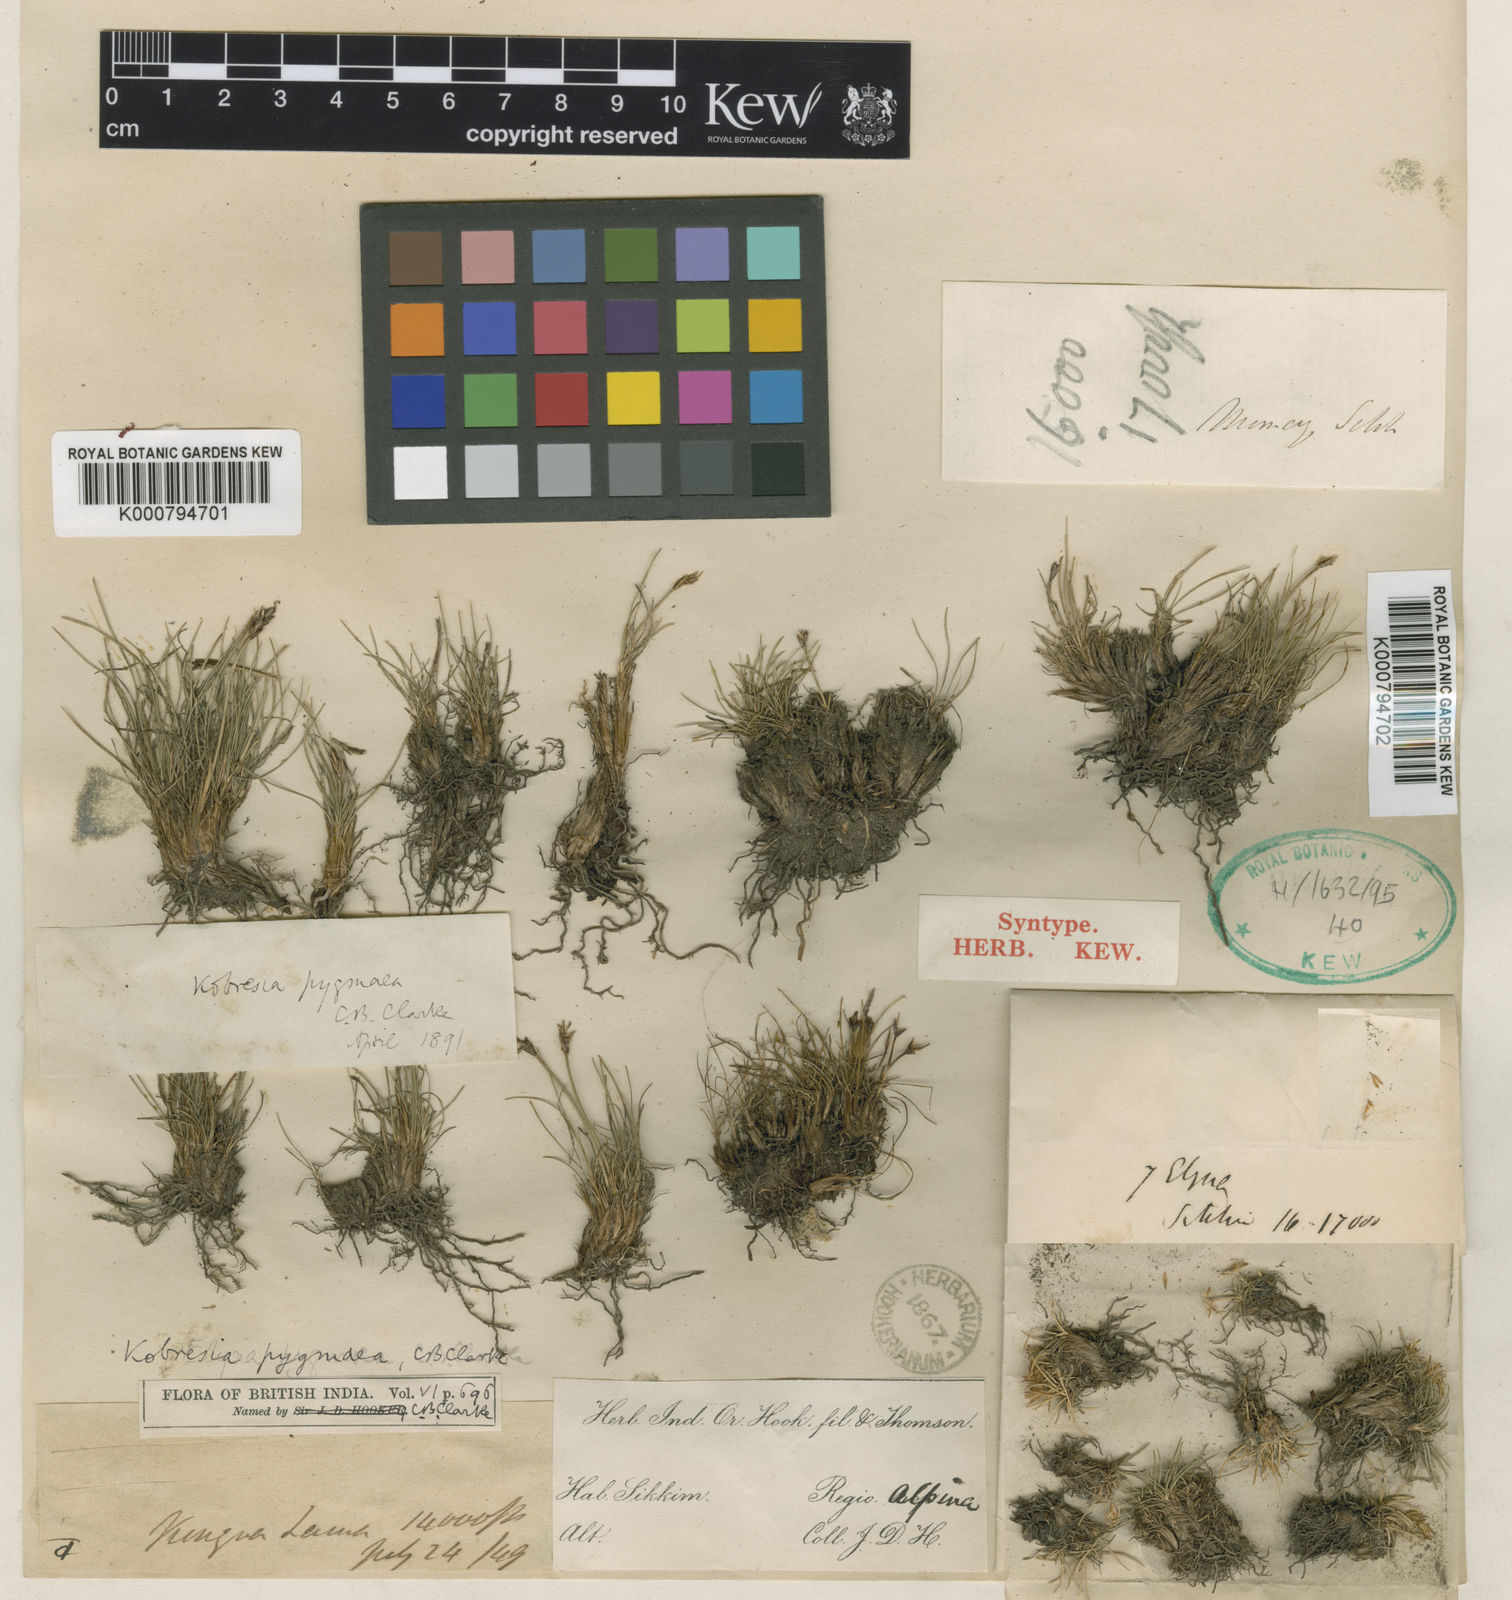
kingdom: Plantae
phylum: Tracheophyta
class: Liliopsida
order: Poales
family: Cyperaceae
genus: Carex
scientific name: Carex parvula
